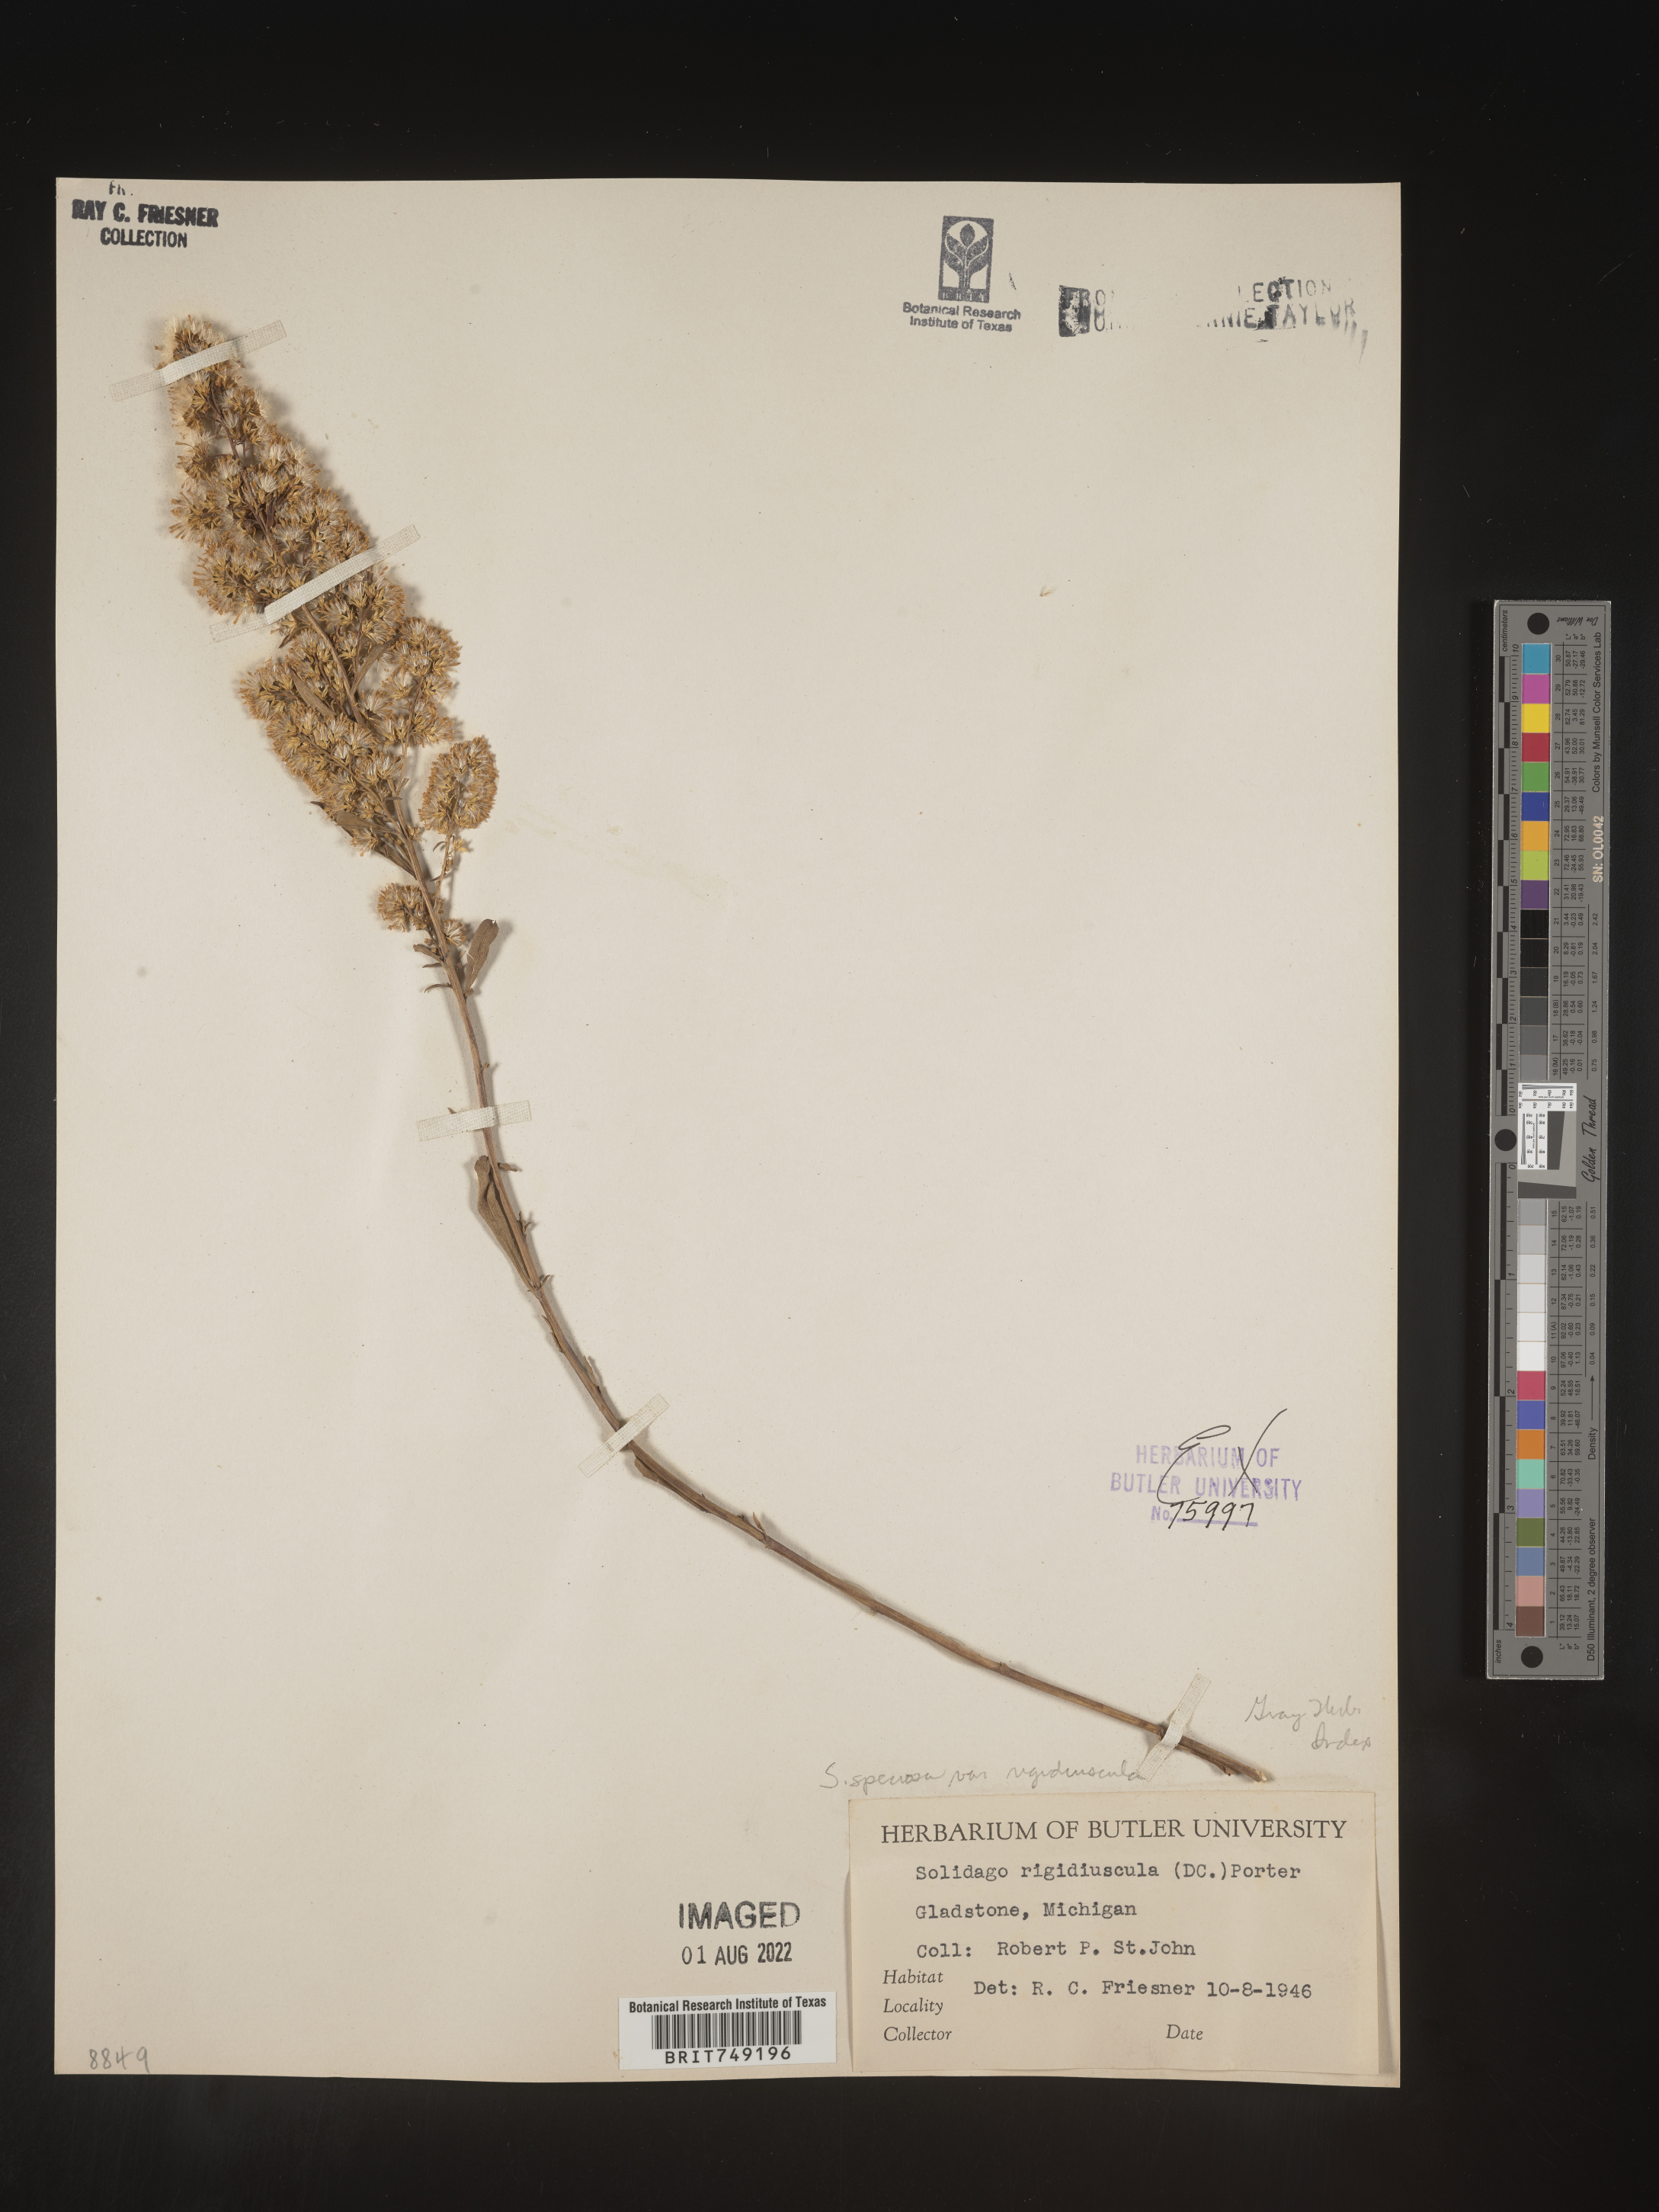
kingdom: Plantae
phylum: Tracheophyta
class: Magnoliopsida
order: Asterales
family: Asteraceae
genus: Solidago
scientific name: Solidago speciosa
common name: Showy goldenrod
